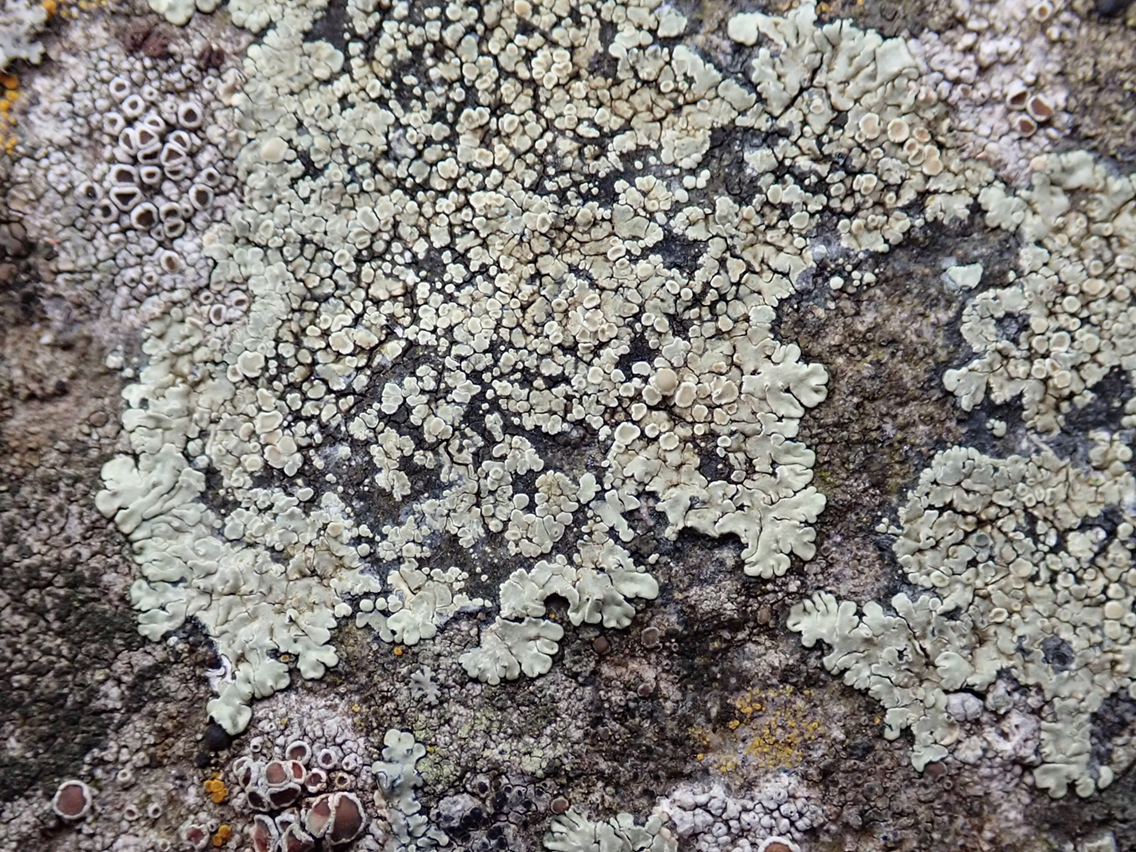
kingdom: Fungi
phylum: Ascomycota
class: Lecanoromycetes
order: Lecanorales
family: Lecanoraceae
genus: Protoparmeliopsis
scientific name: Protoparmeliopsis muralis
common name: randfliget kantskivelav
